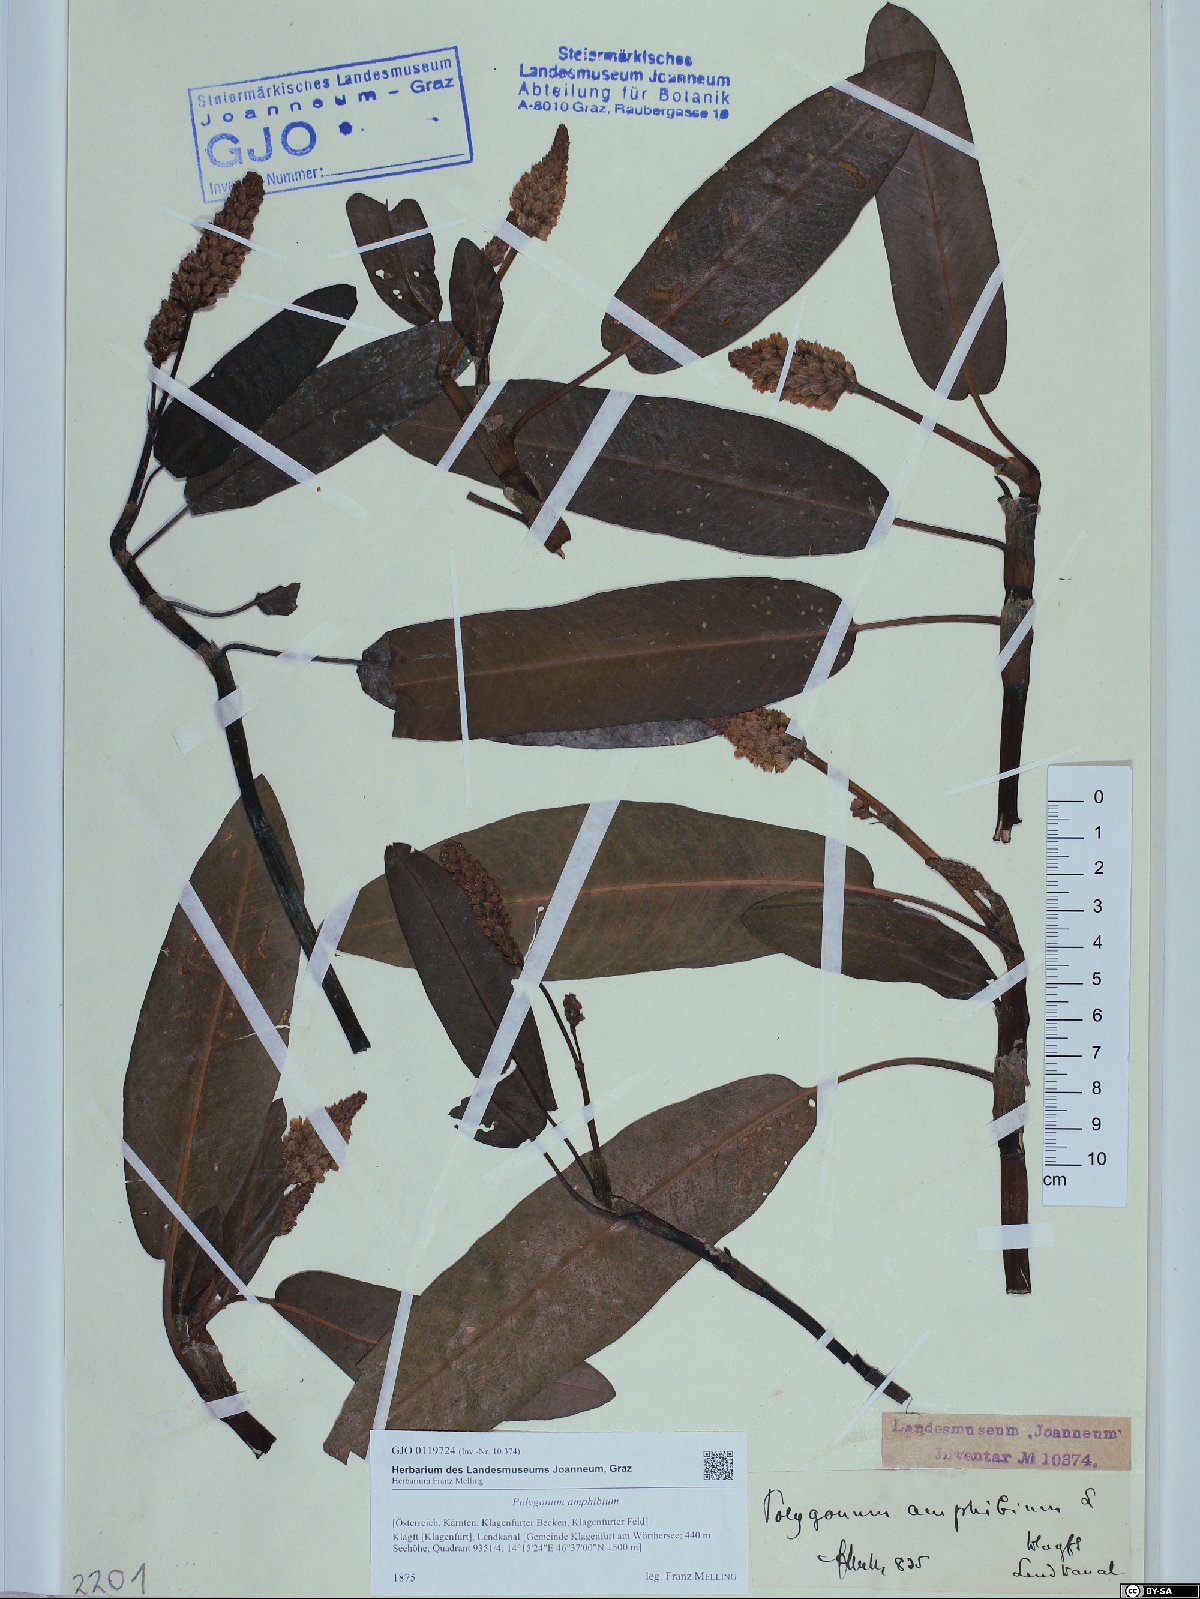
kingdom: Plantae
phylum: Tracheophyta
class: Magnoliopsida
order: Caryophyllales
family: Polygonaceae
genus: Persicaria
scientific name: Persicaria amphibia
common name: Amphibious bistort
